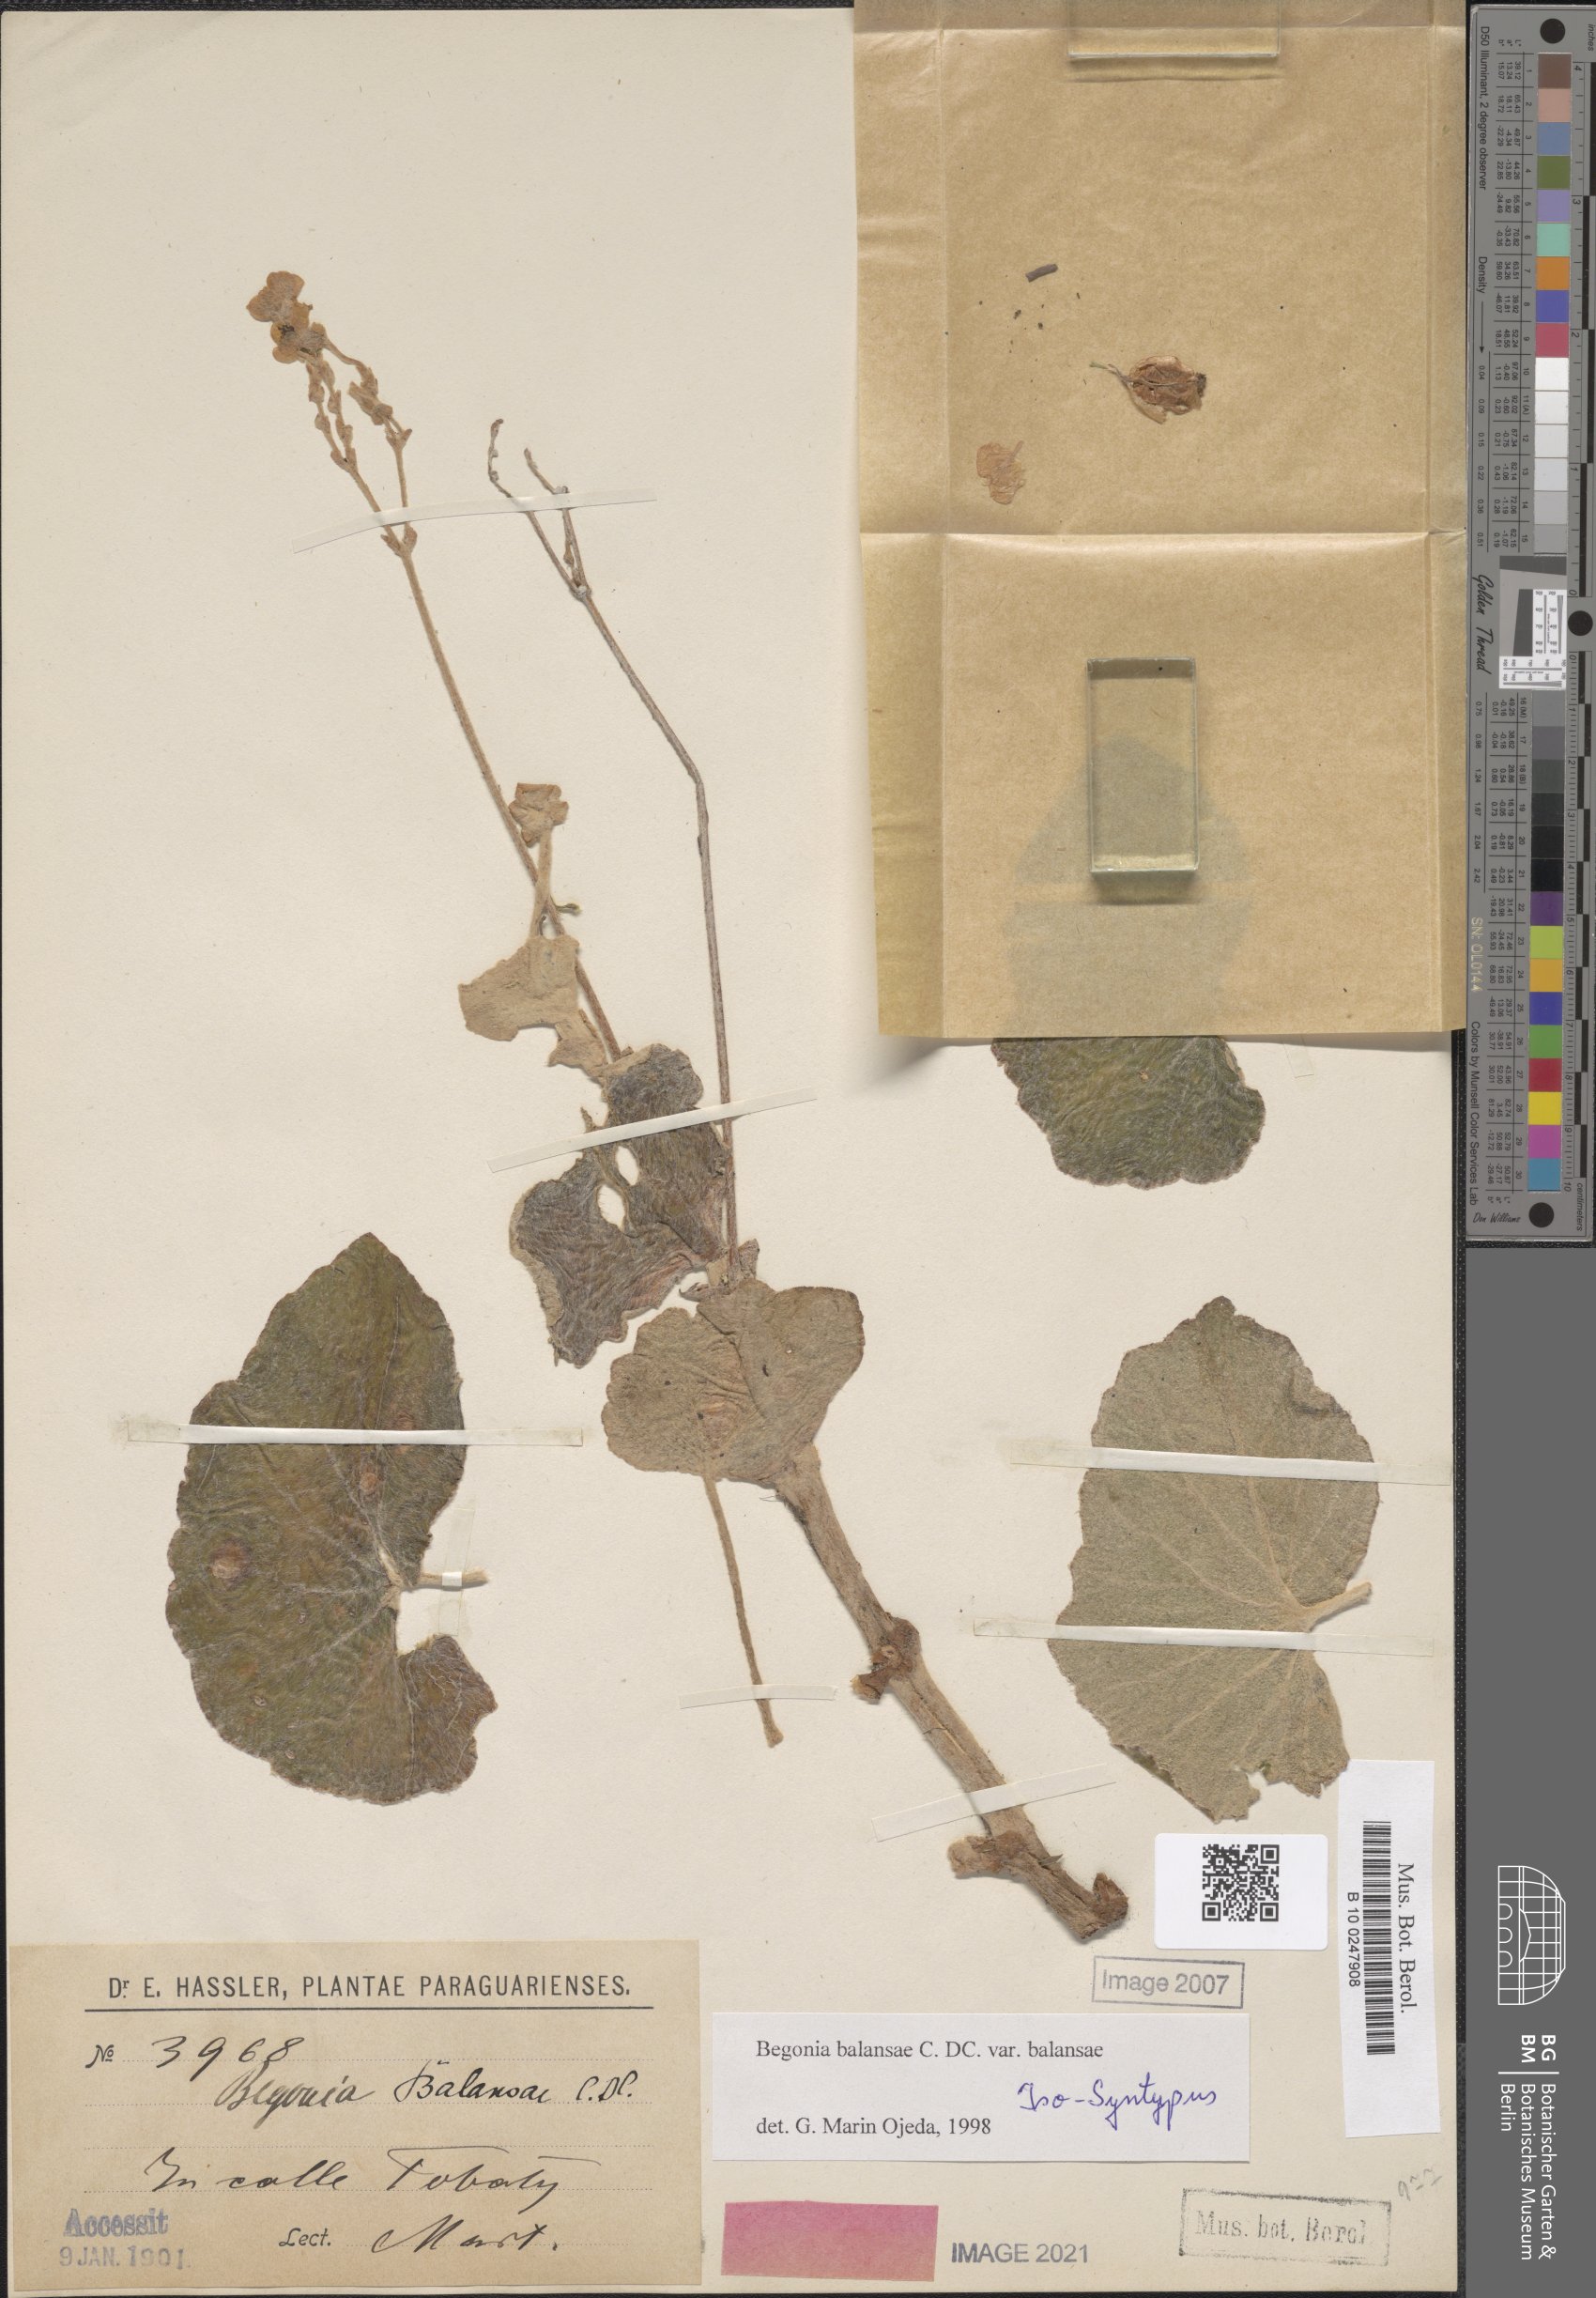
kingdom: Plantae
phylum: Tracheophyta
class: Magnoliopsida
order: Cucurbitales
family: Begoniaceae
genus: Begonia
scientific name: Begonia balansae
